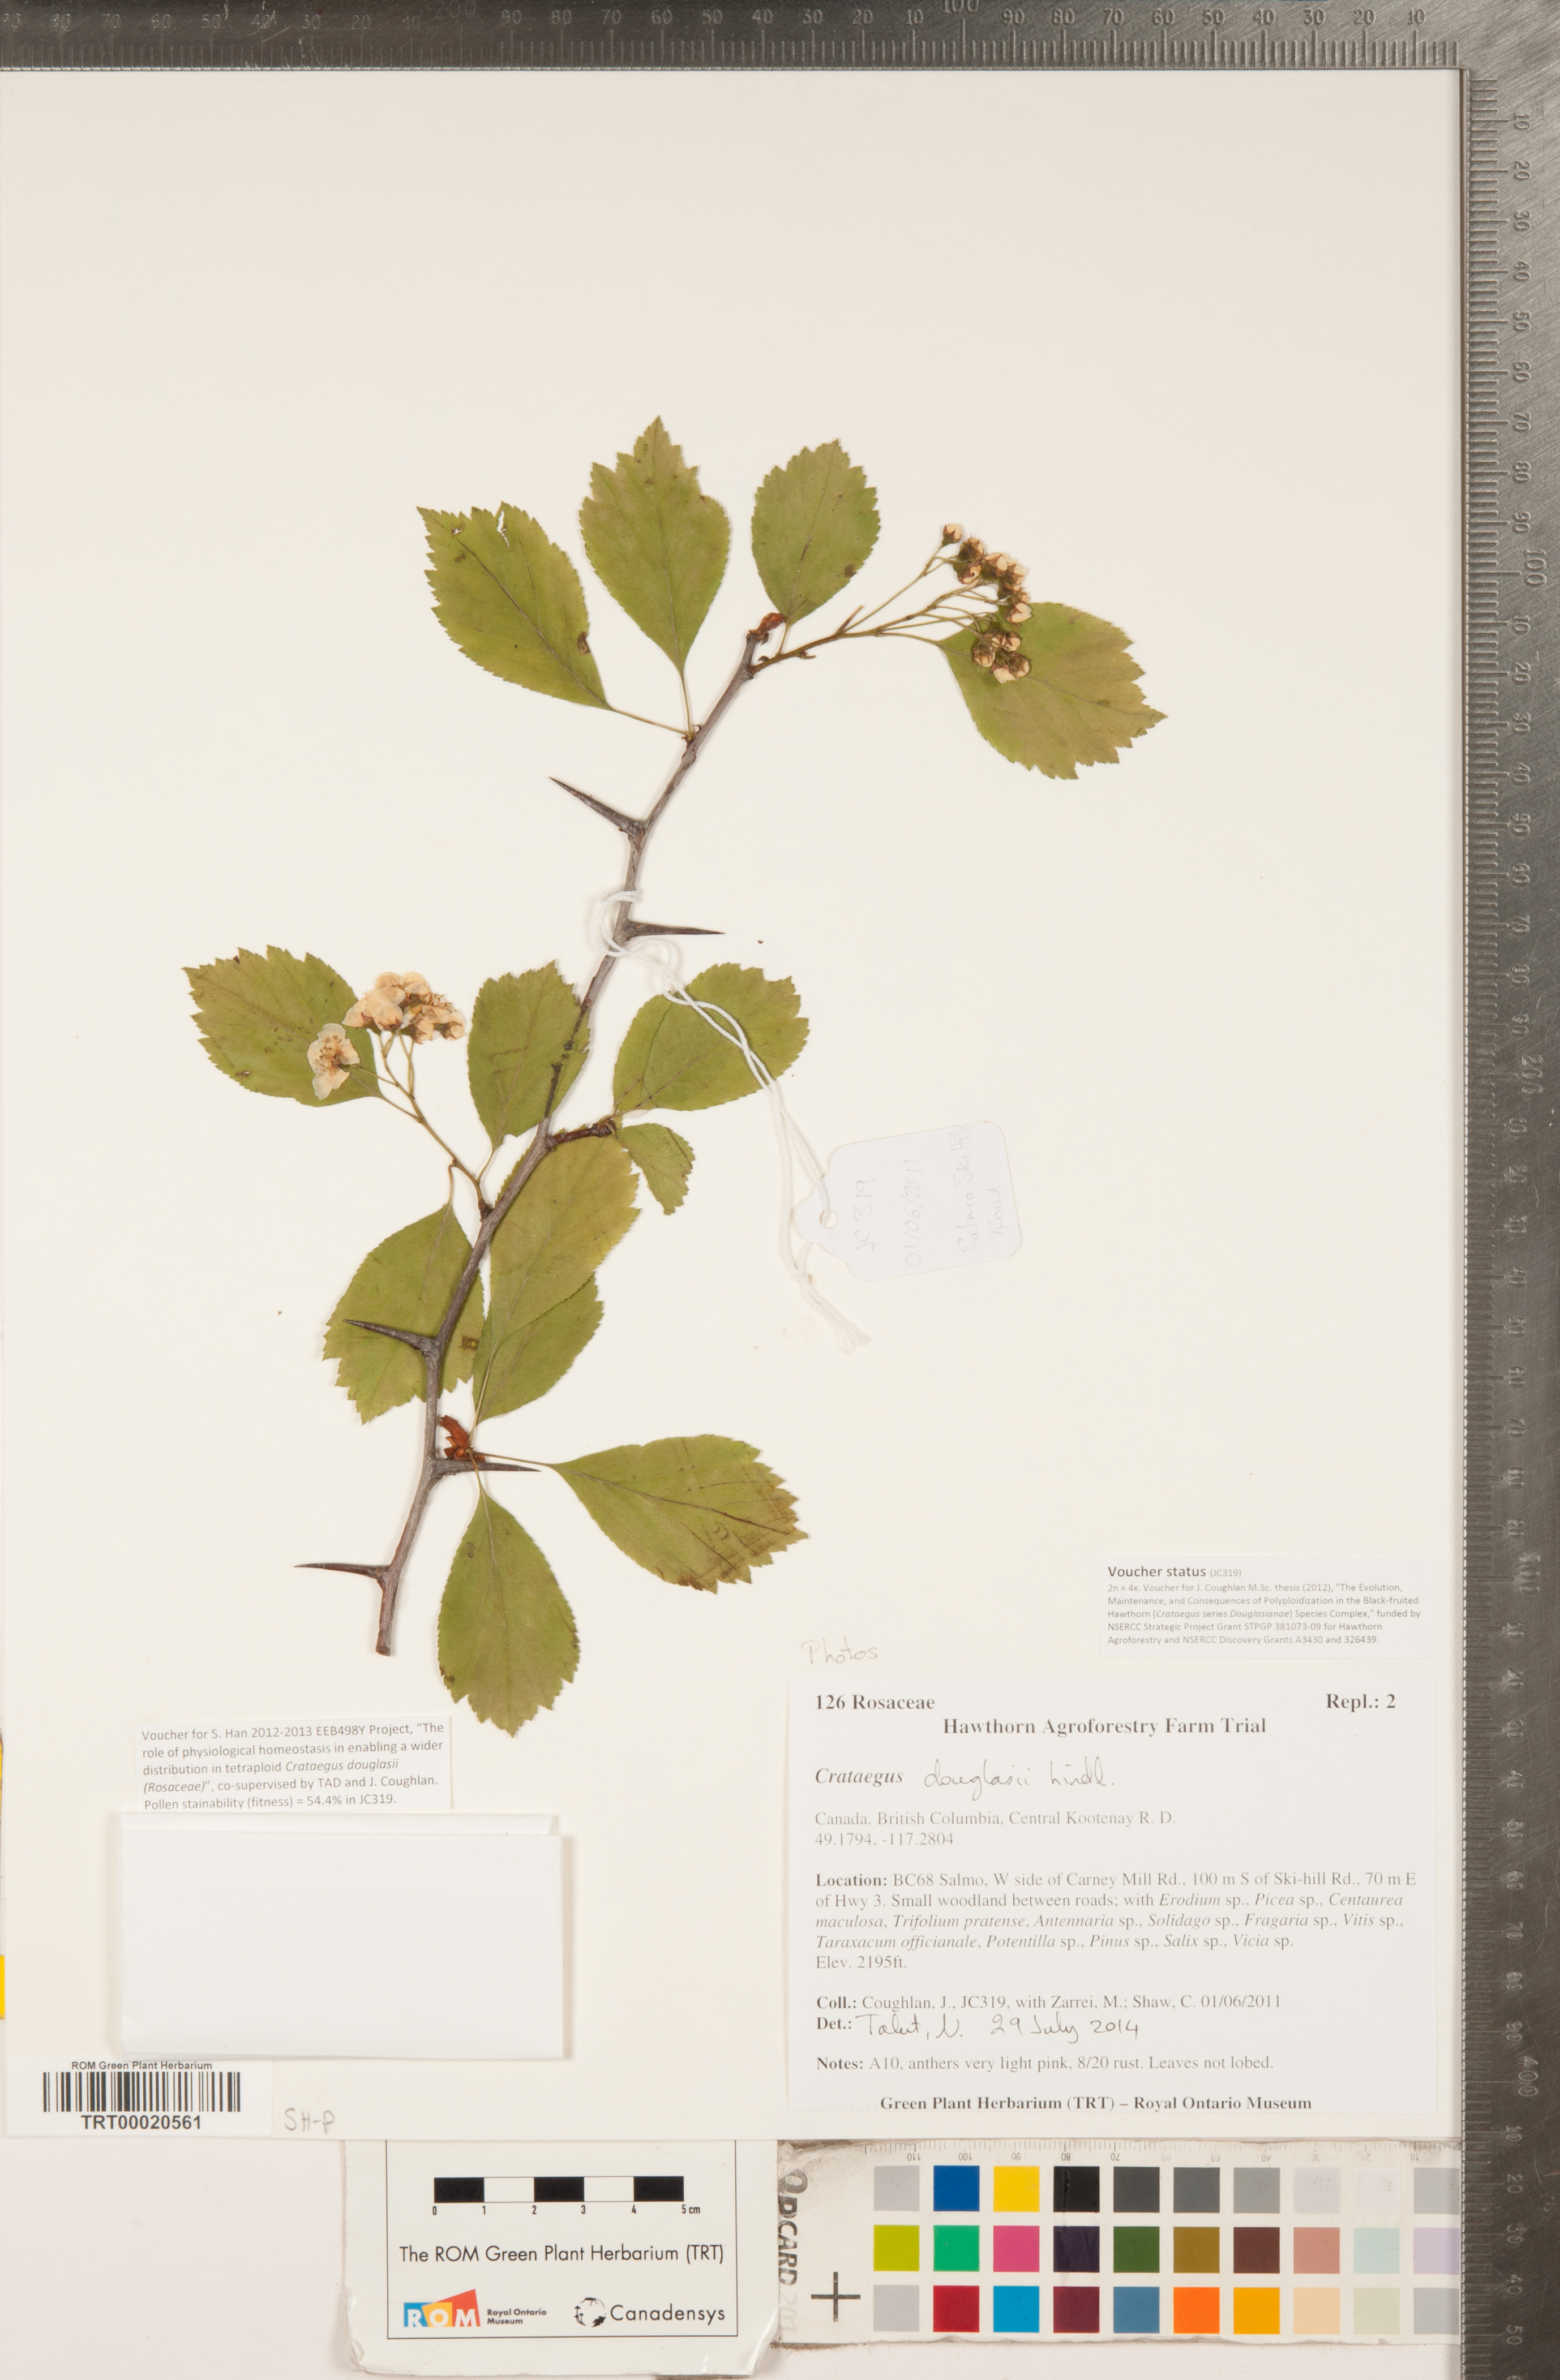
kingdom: Plantae
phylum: Tracheophyta
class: Magnoliopsida
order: Rosales
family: Rosaceae
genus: Crataegus
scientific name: Crataegus douglasii
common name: Black hawthorn
